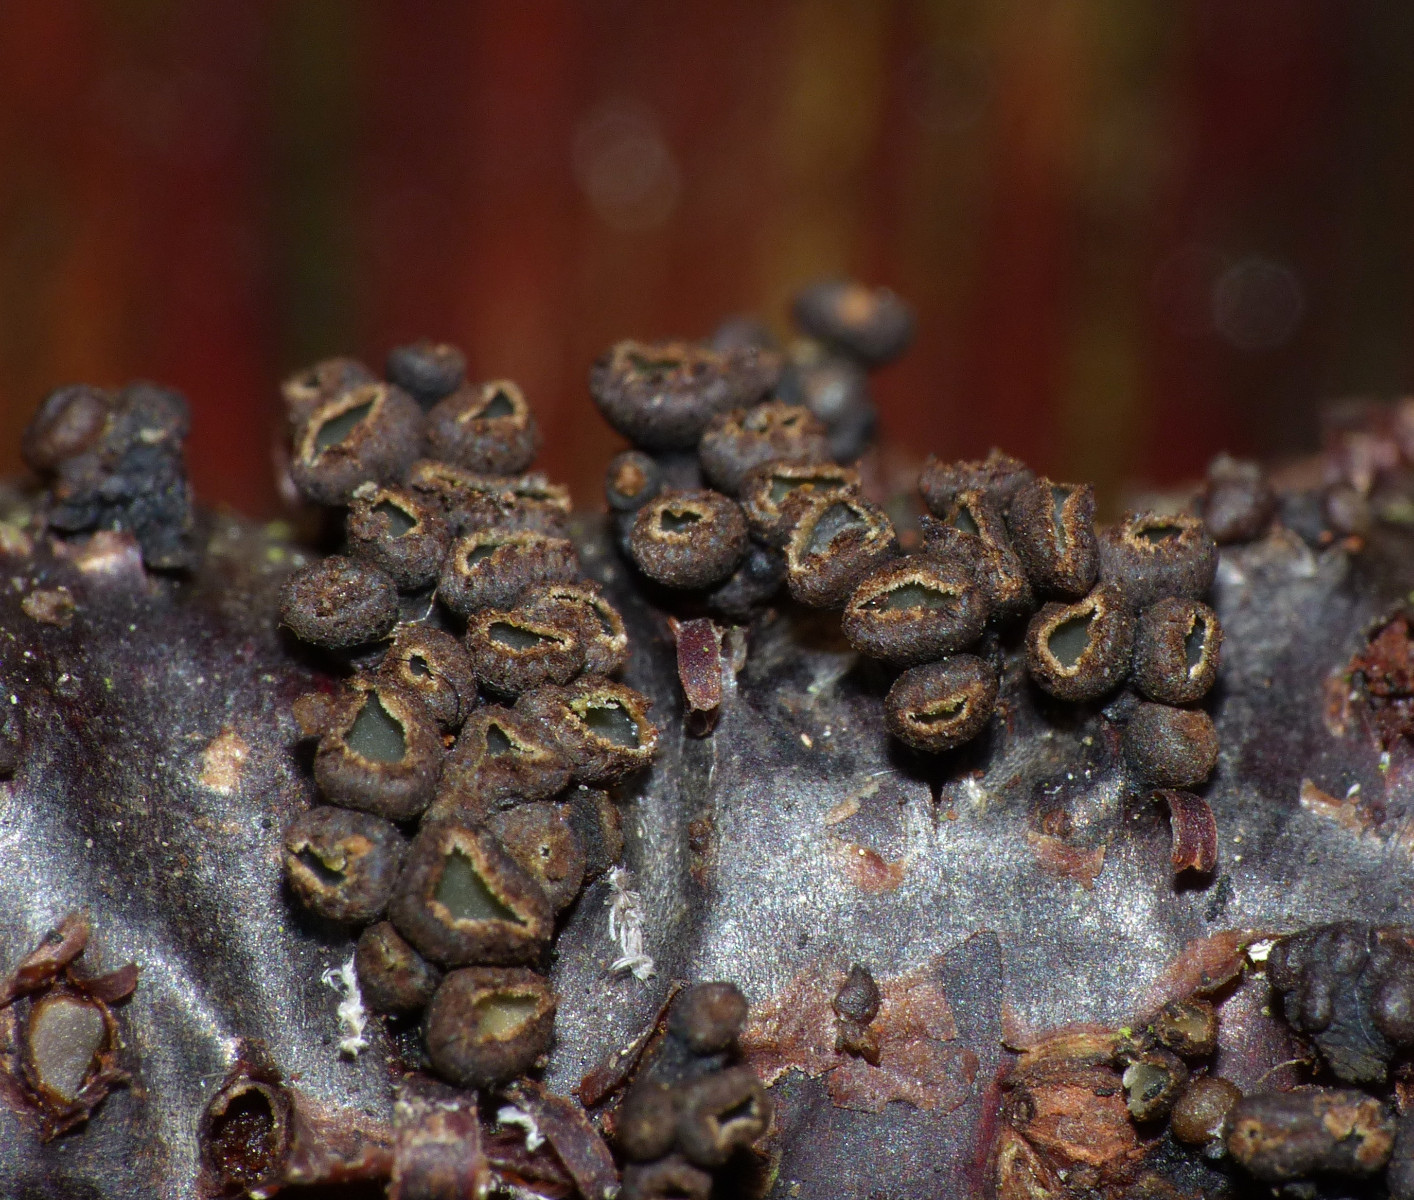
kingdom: Fungi
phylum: Ascomycota
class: Leotiomycetes
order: Helotiales
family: Godroniaceae
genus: Godronia
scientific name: Godronia uberiformis
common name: solbær-urneskive
